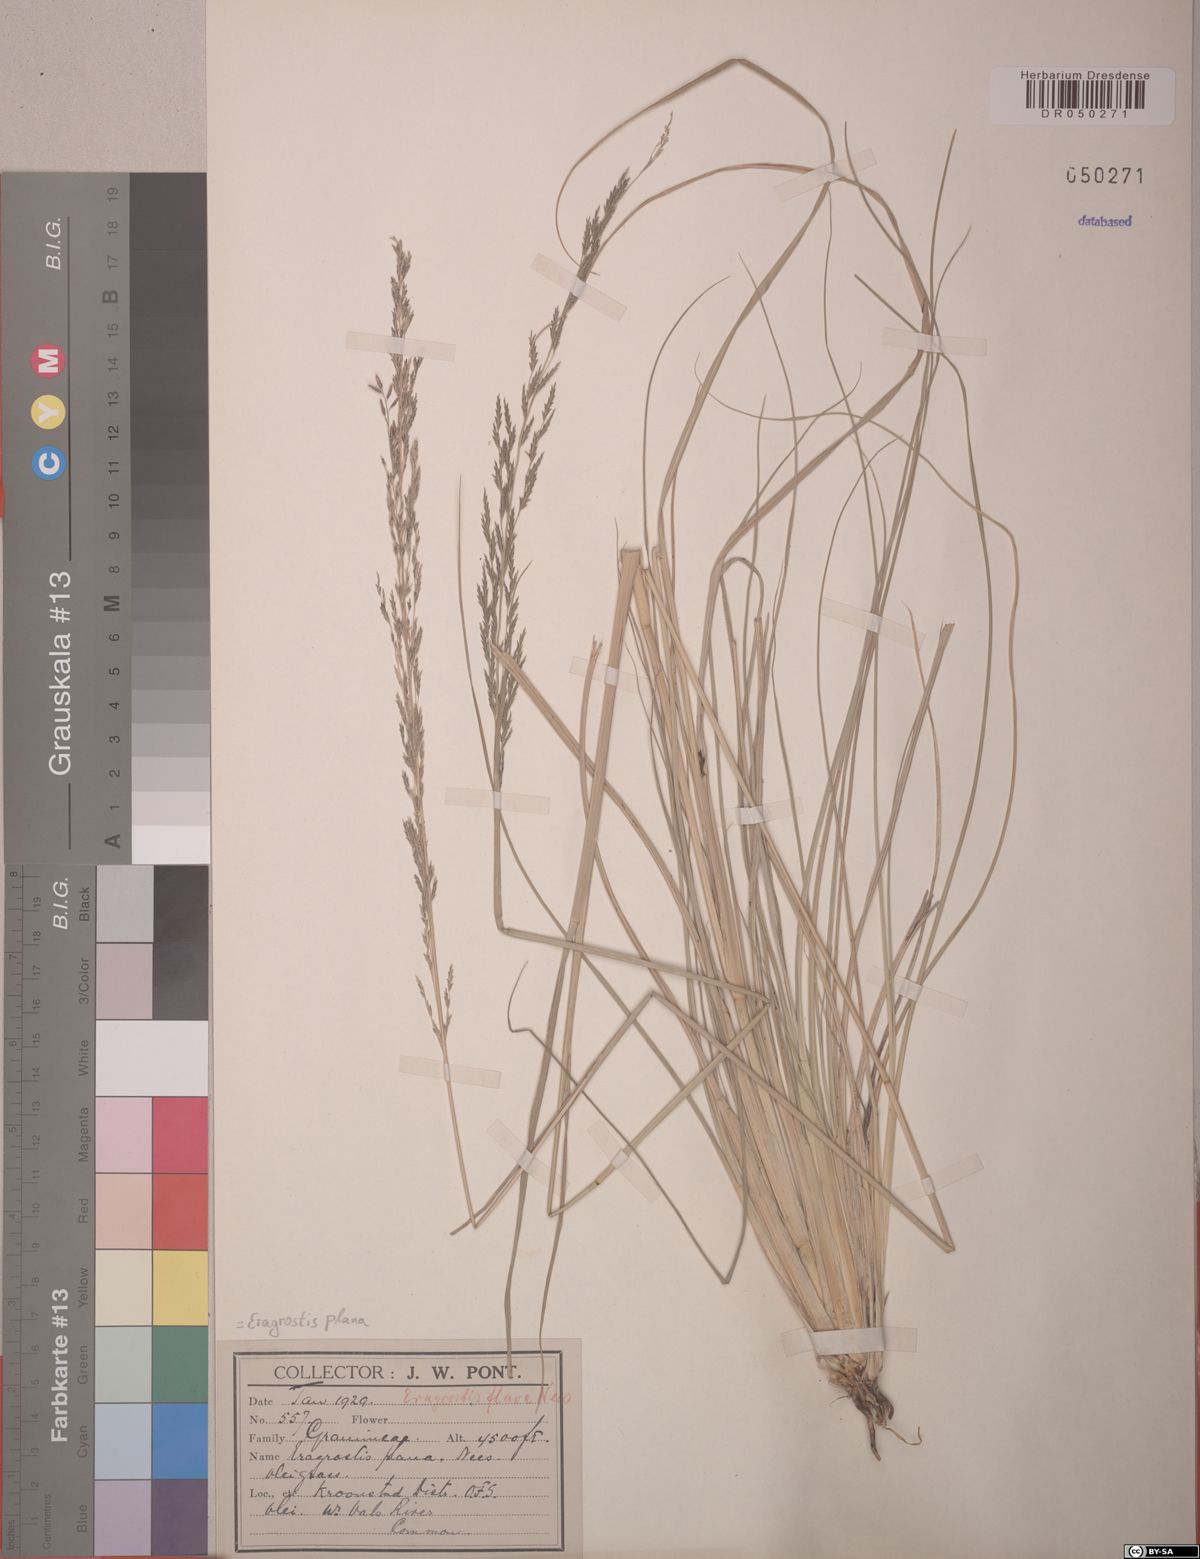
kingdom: Plantae
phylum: Tracheophyta
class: Liliopsida
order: Poales
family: Poaceae
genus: Eragrostis
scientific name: Eragrostis plana
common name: South african lovegrass
